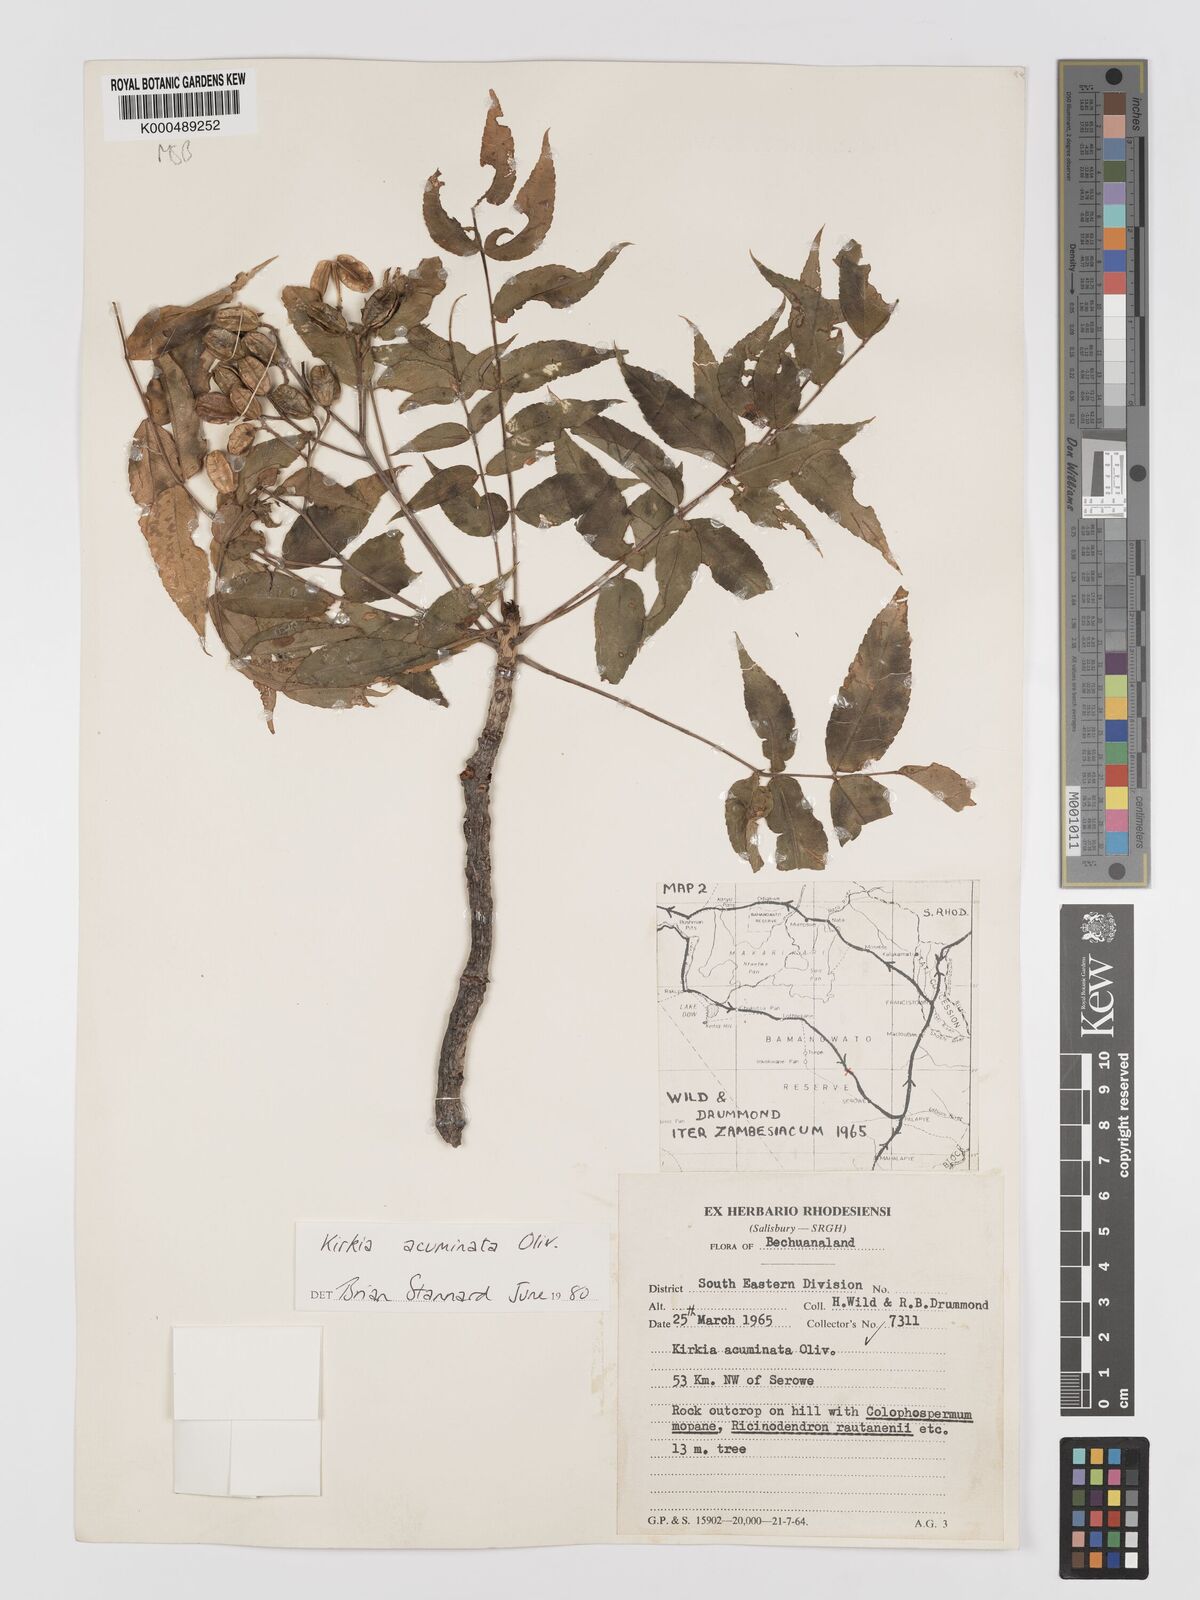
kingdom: Plantae
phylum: Tracheophyta
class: Magnoliopsida
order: Sapindales
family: Kirkiaceae
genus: Kirkia
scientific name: Kirkia acuminata
